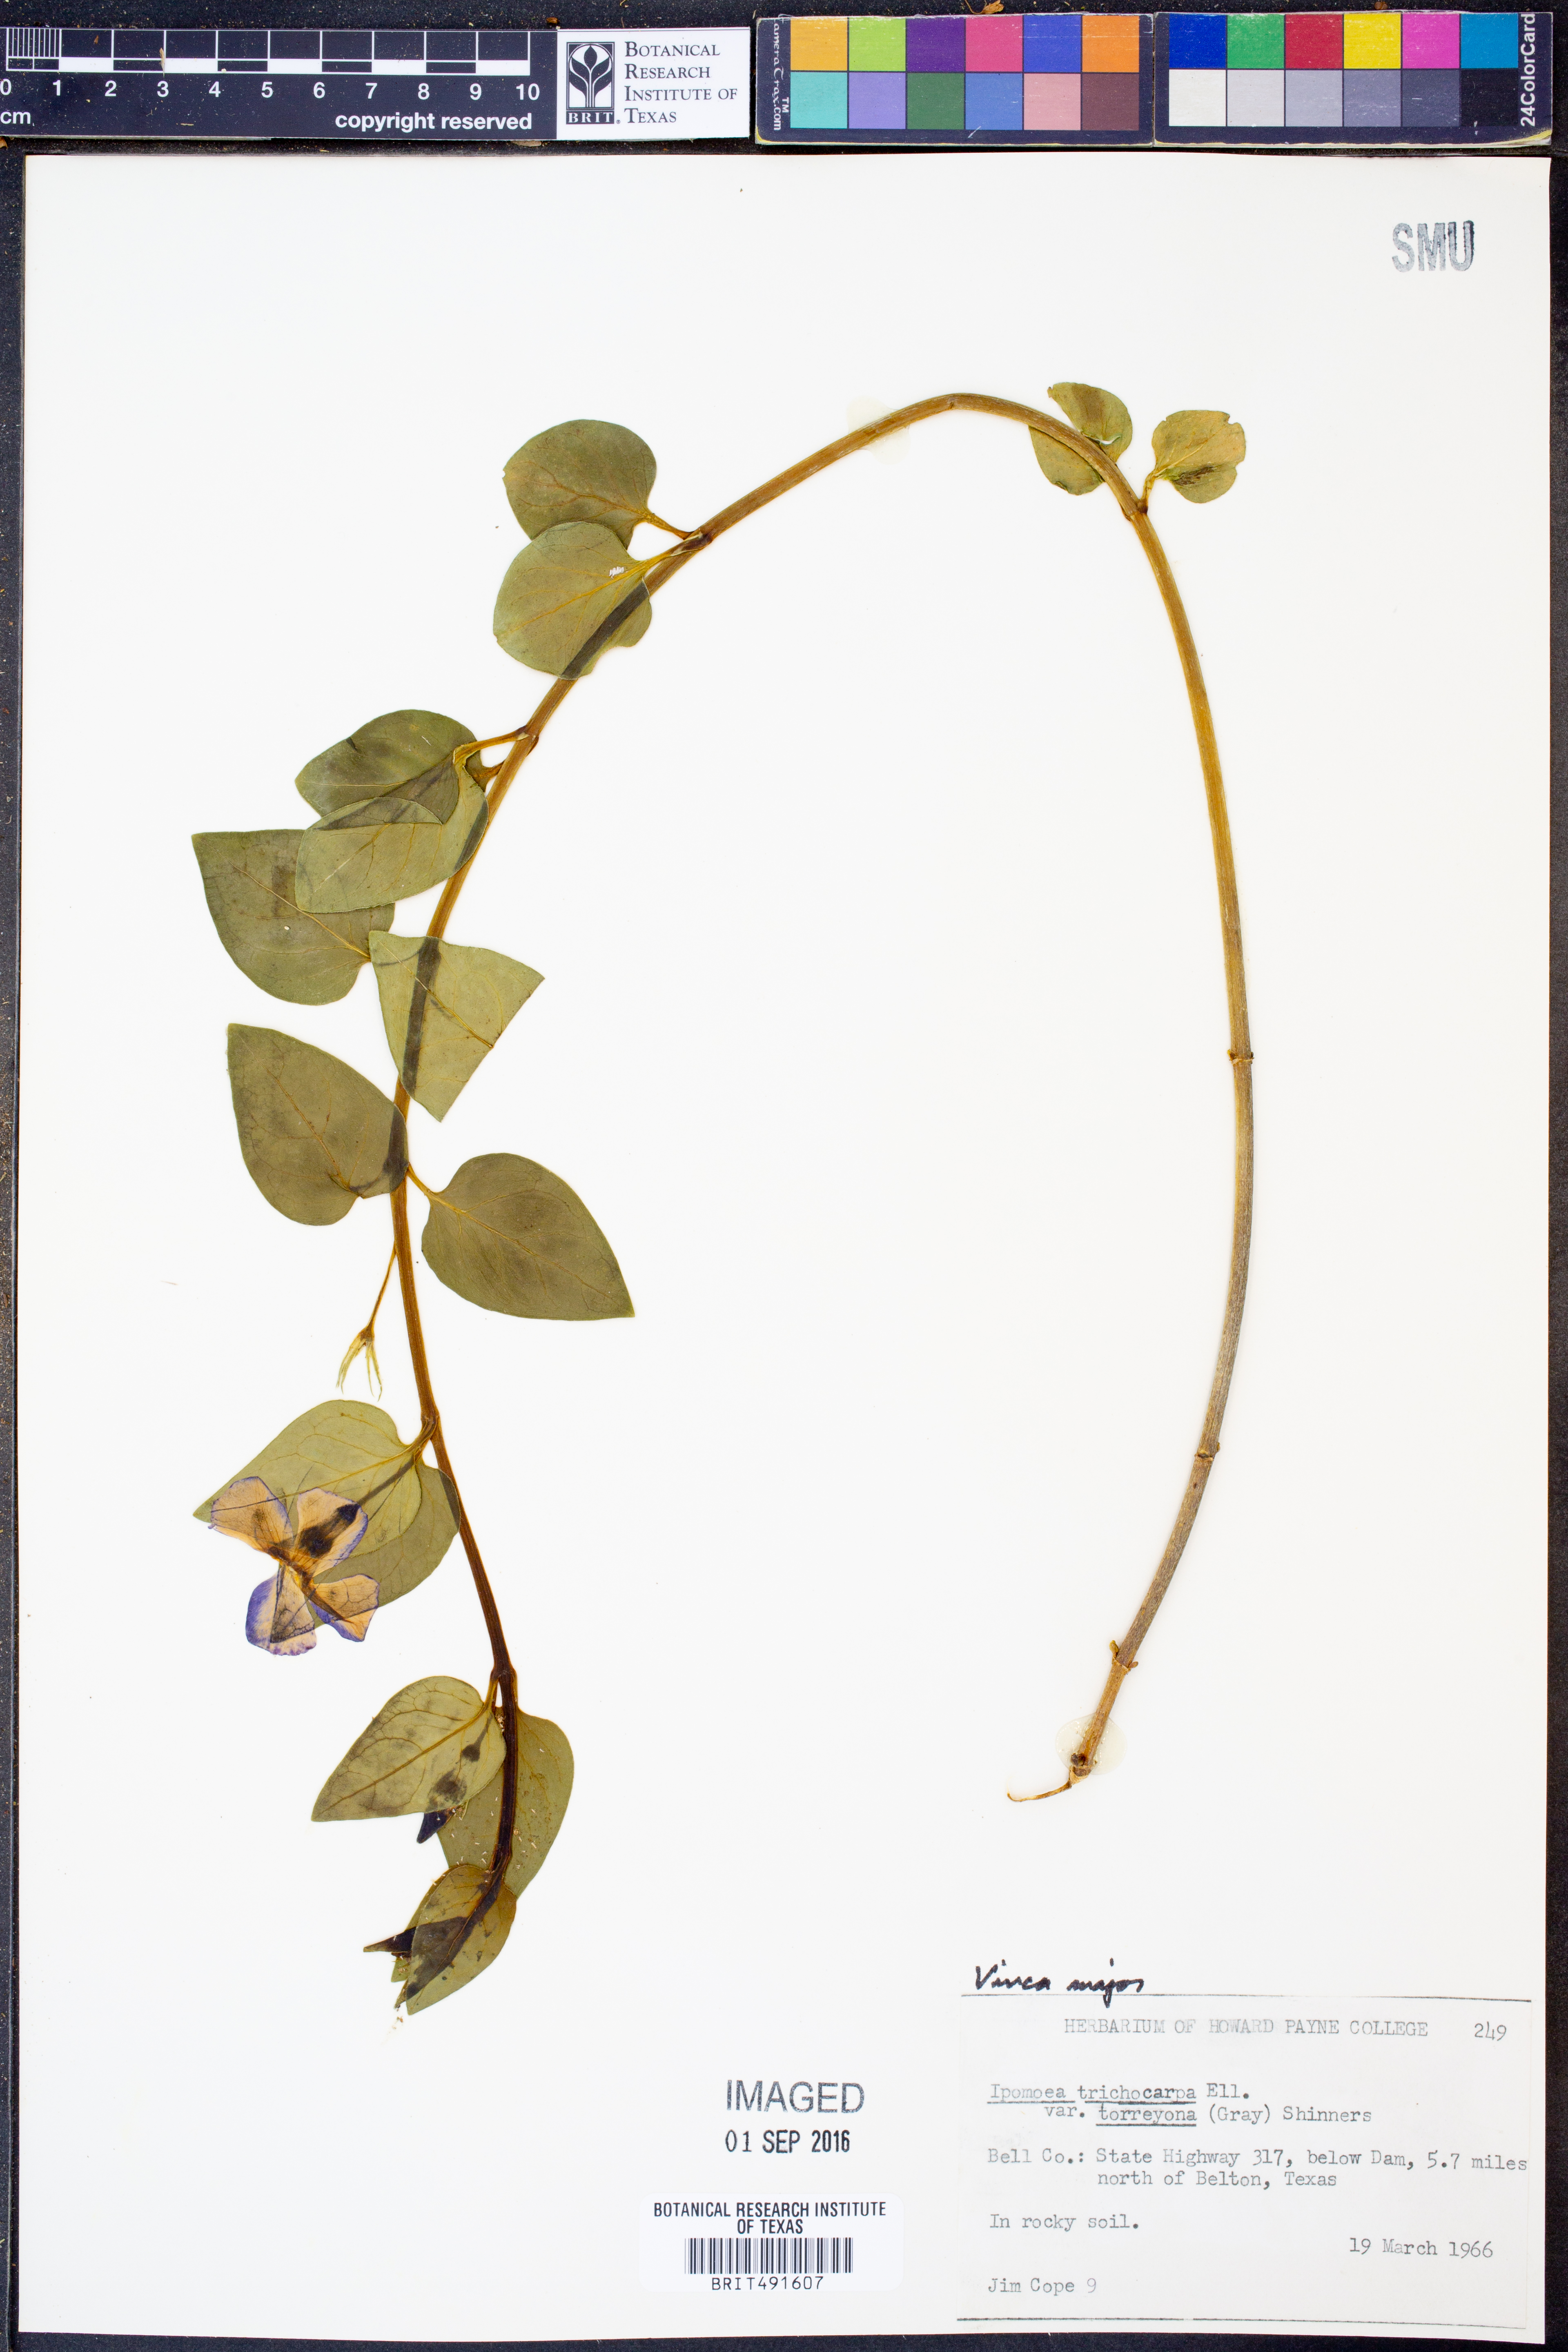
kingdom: Plantae
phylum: Tracheophyta
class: Magnoliopsida
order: Gentianales
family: Apocynaceae
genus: Vinca
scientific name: Vinca major
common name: Greater periwinkle
